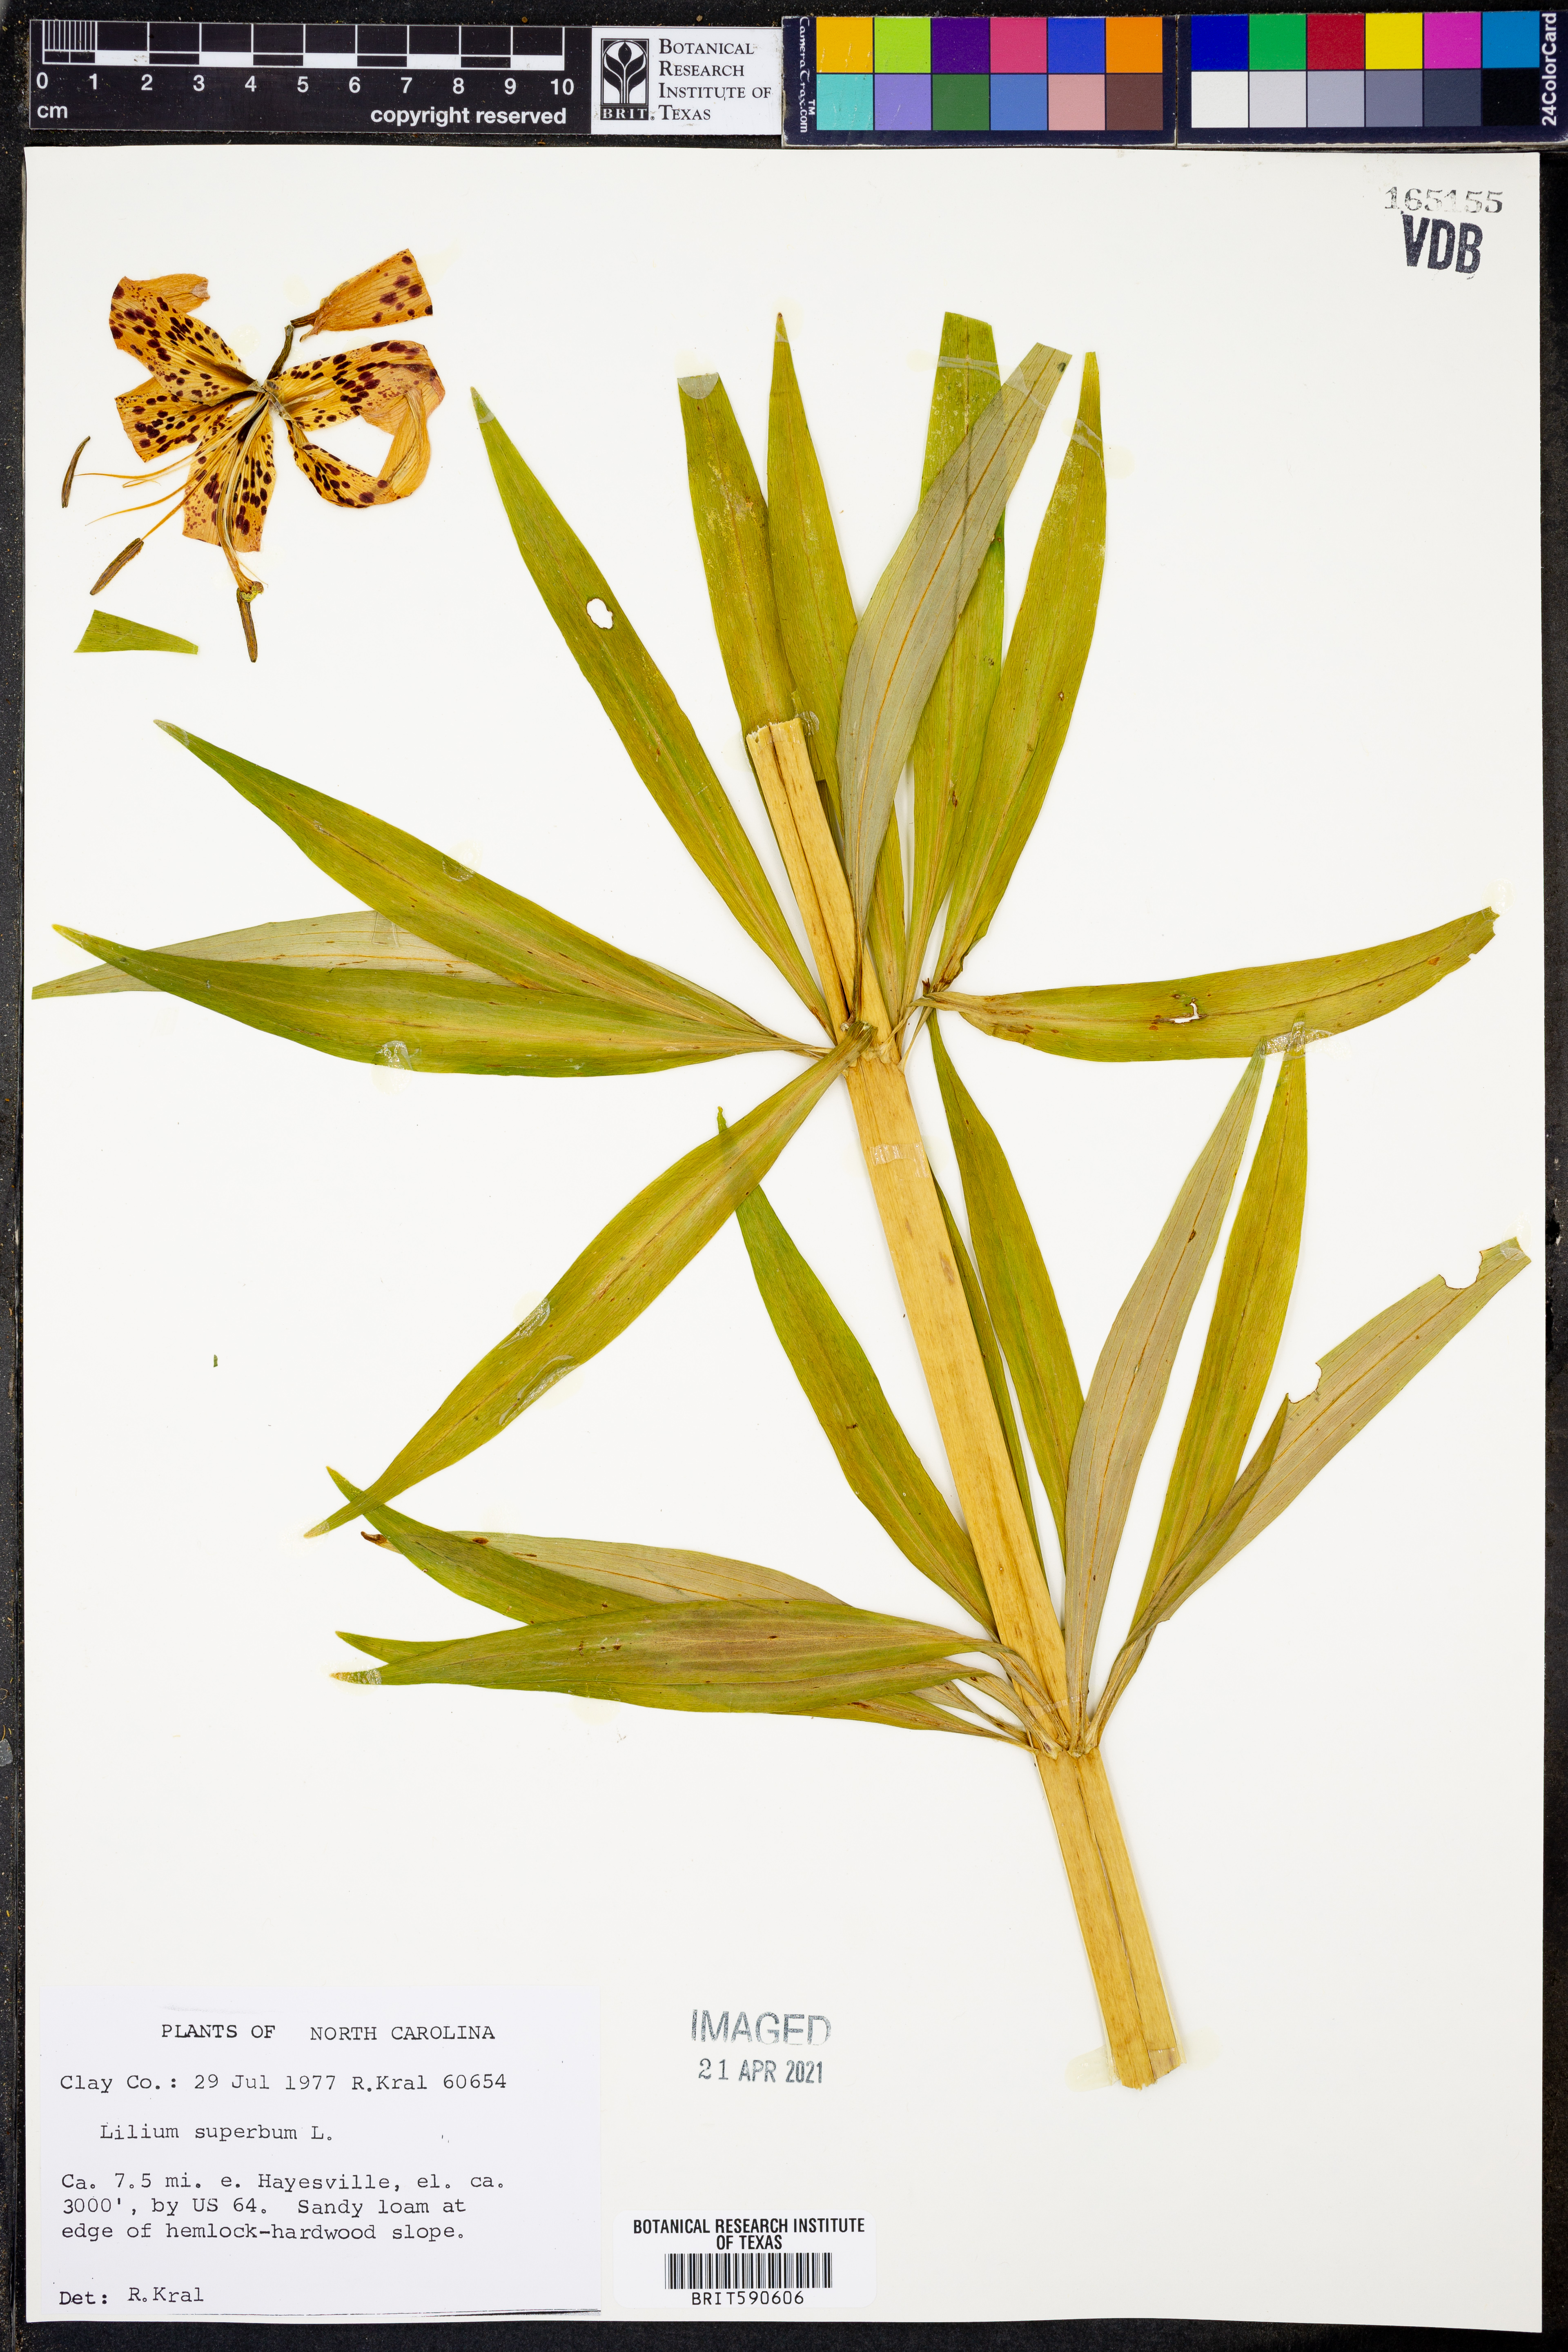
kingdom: Plantae
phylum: Tracheophyta
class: Liliopsida
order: Liliales
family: Liliaceae
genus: Lilium
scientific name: Lilium superbum
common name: American turk's-cap lily
